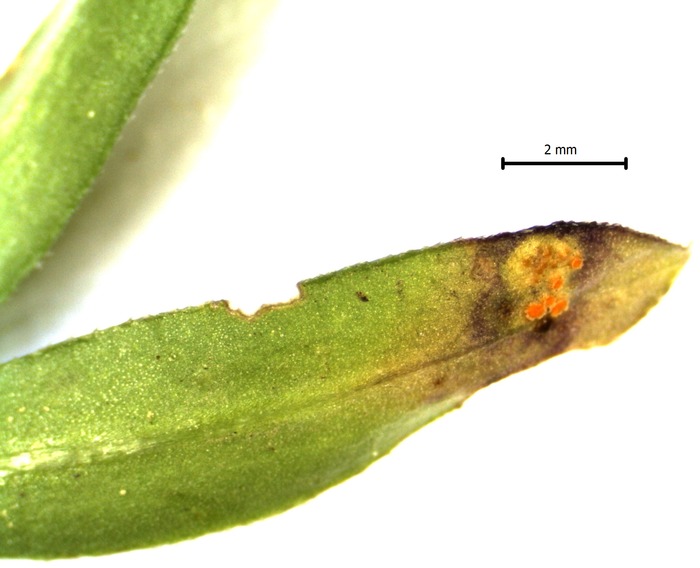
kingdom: Fungi
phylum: Basidiomycota
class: Pucciniomycetes
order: Pucciniales
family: Pucciniaceae
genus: Puccinia
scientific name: Puccinia punctata
